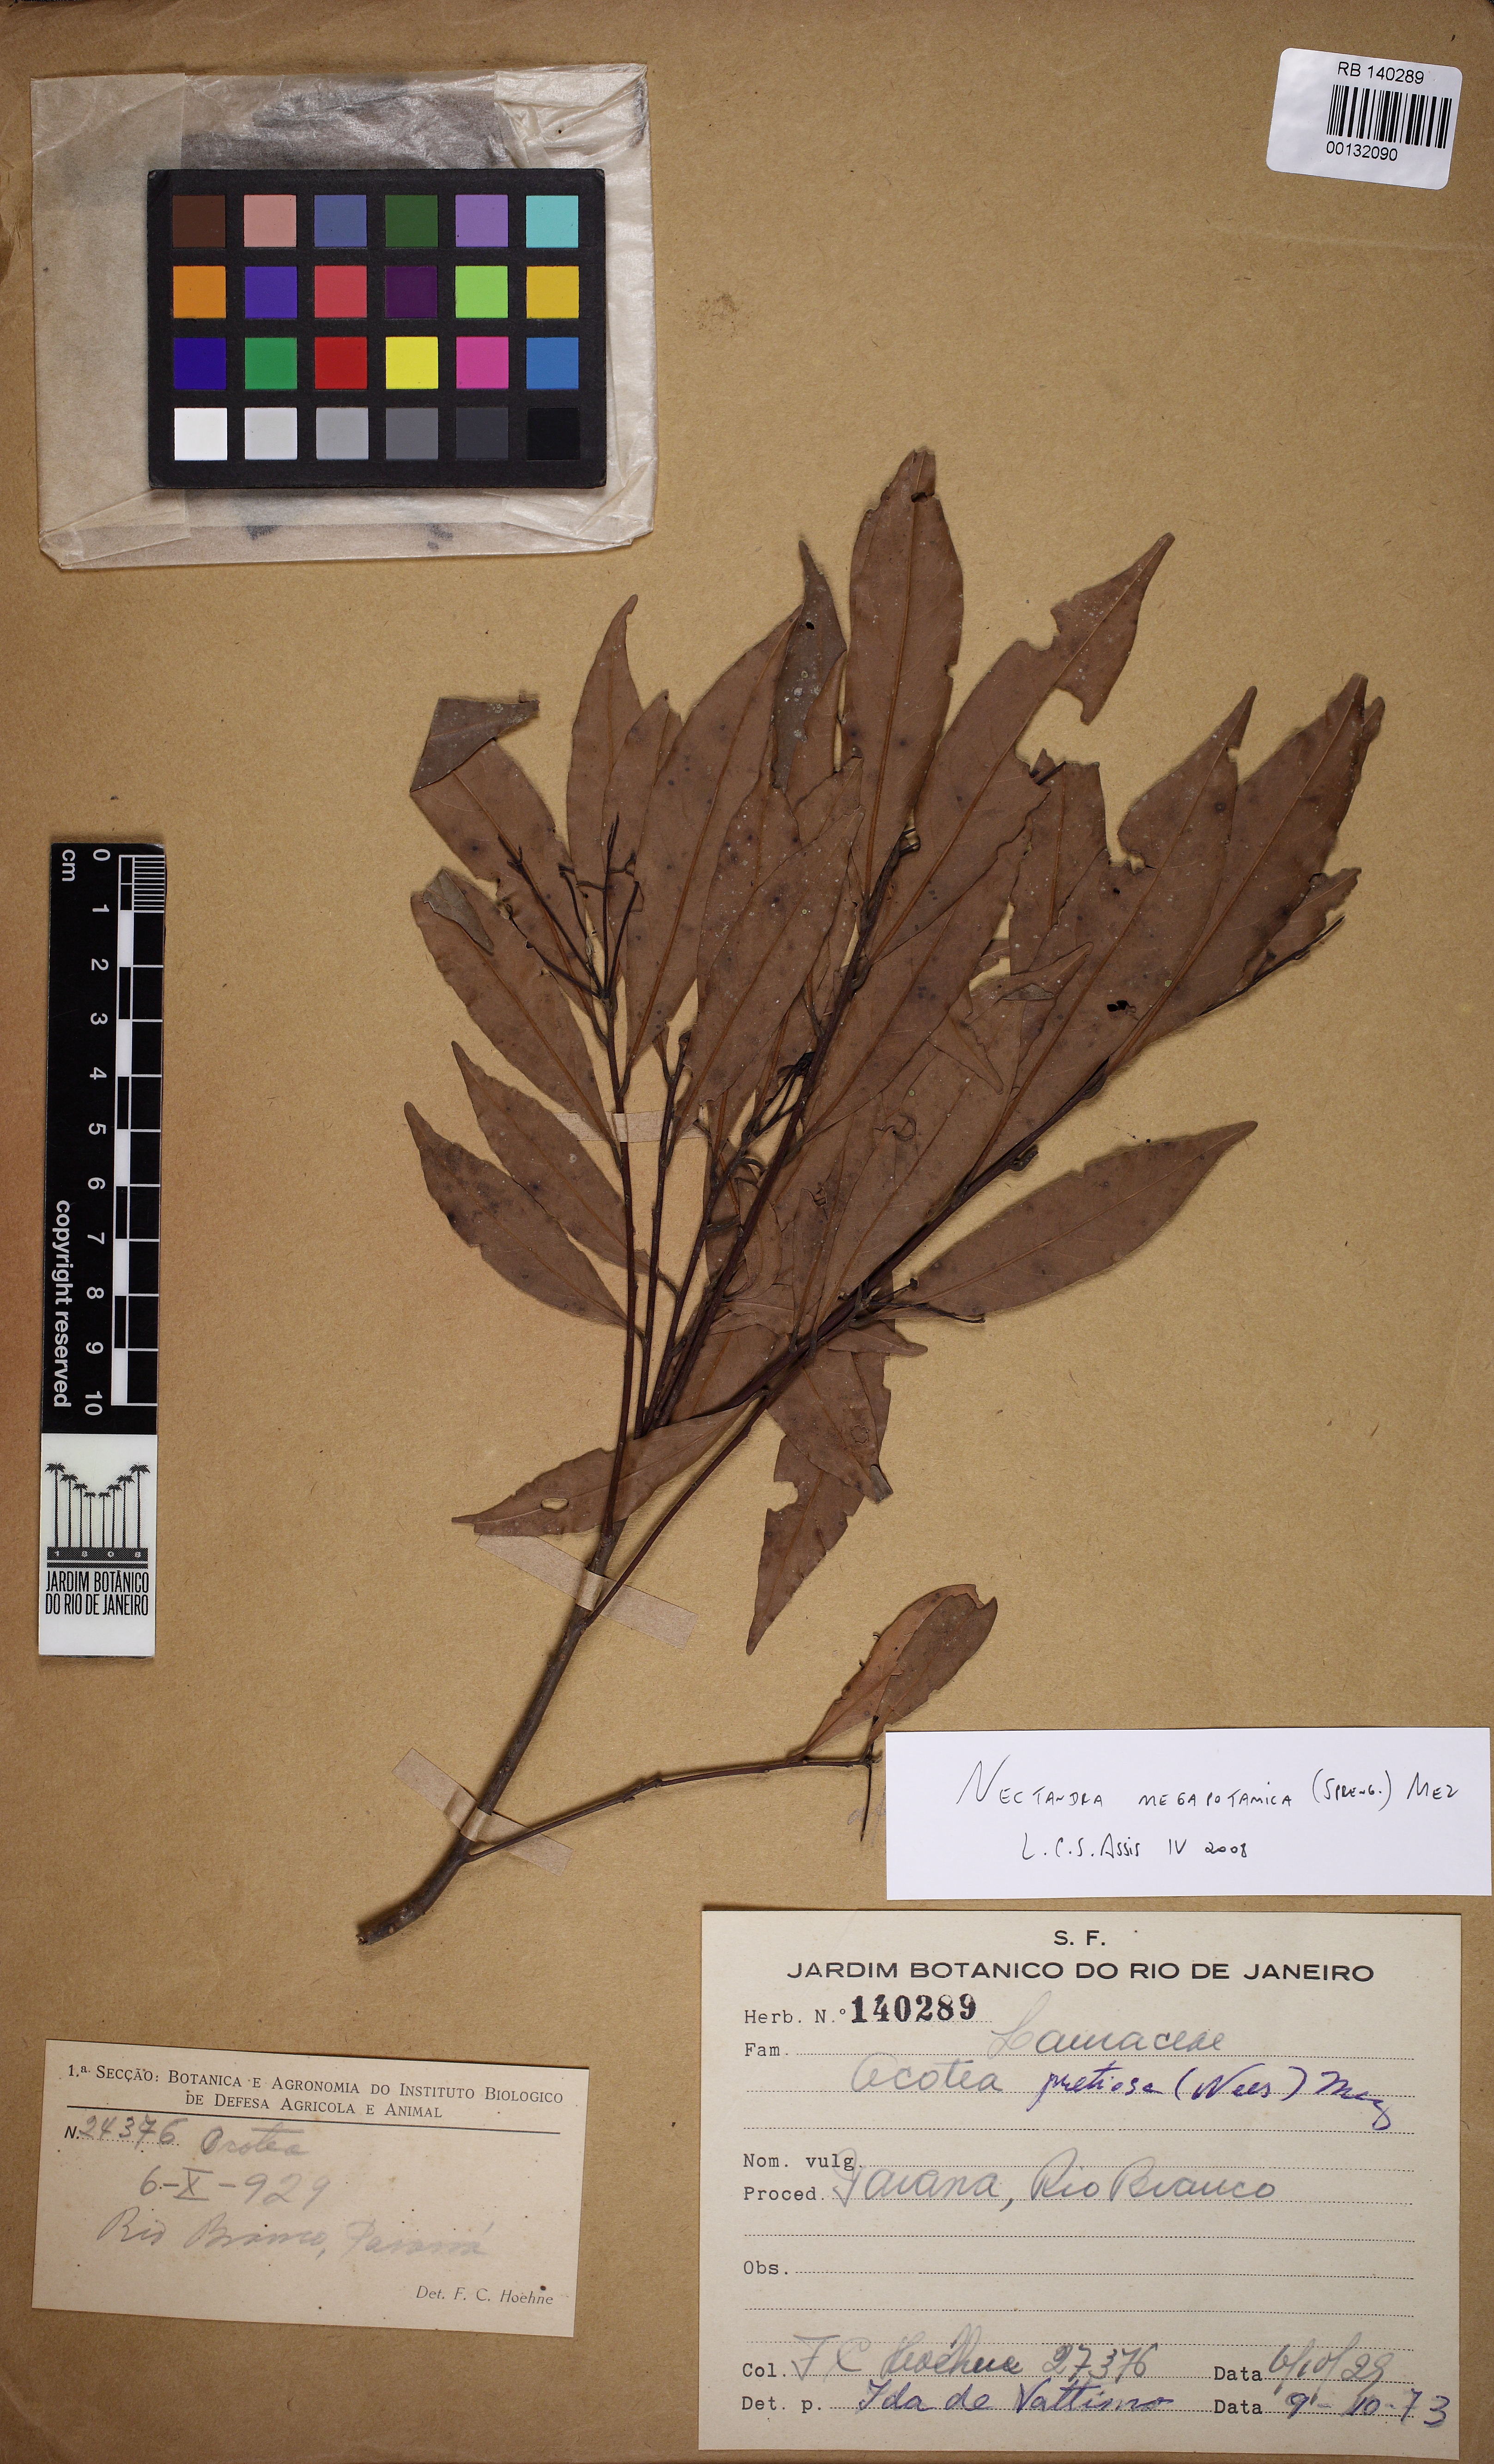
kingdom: Plantae
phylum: Tracheophyta
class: Magnoliopsida
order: Laurales
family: Lauraceae
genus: Nectandra
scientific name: Nectandra megapotamica
